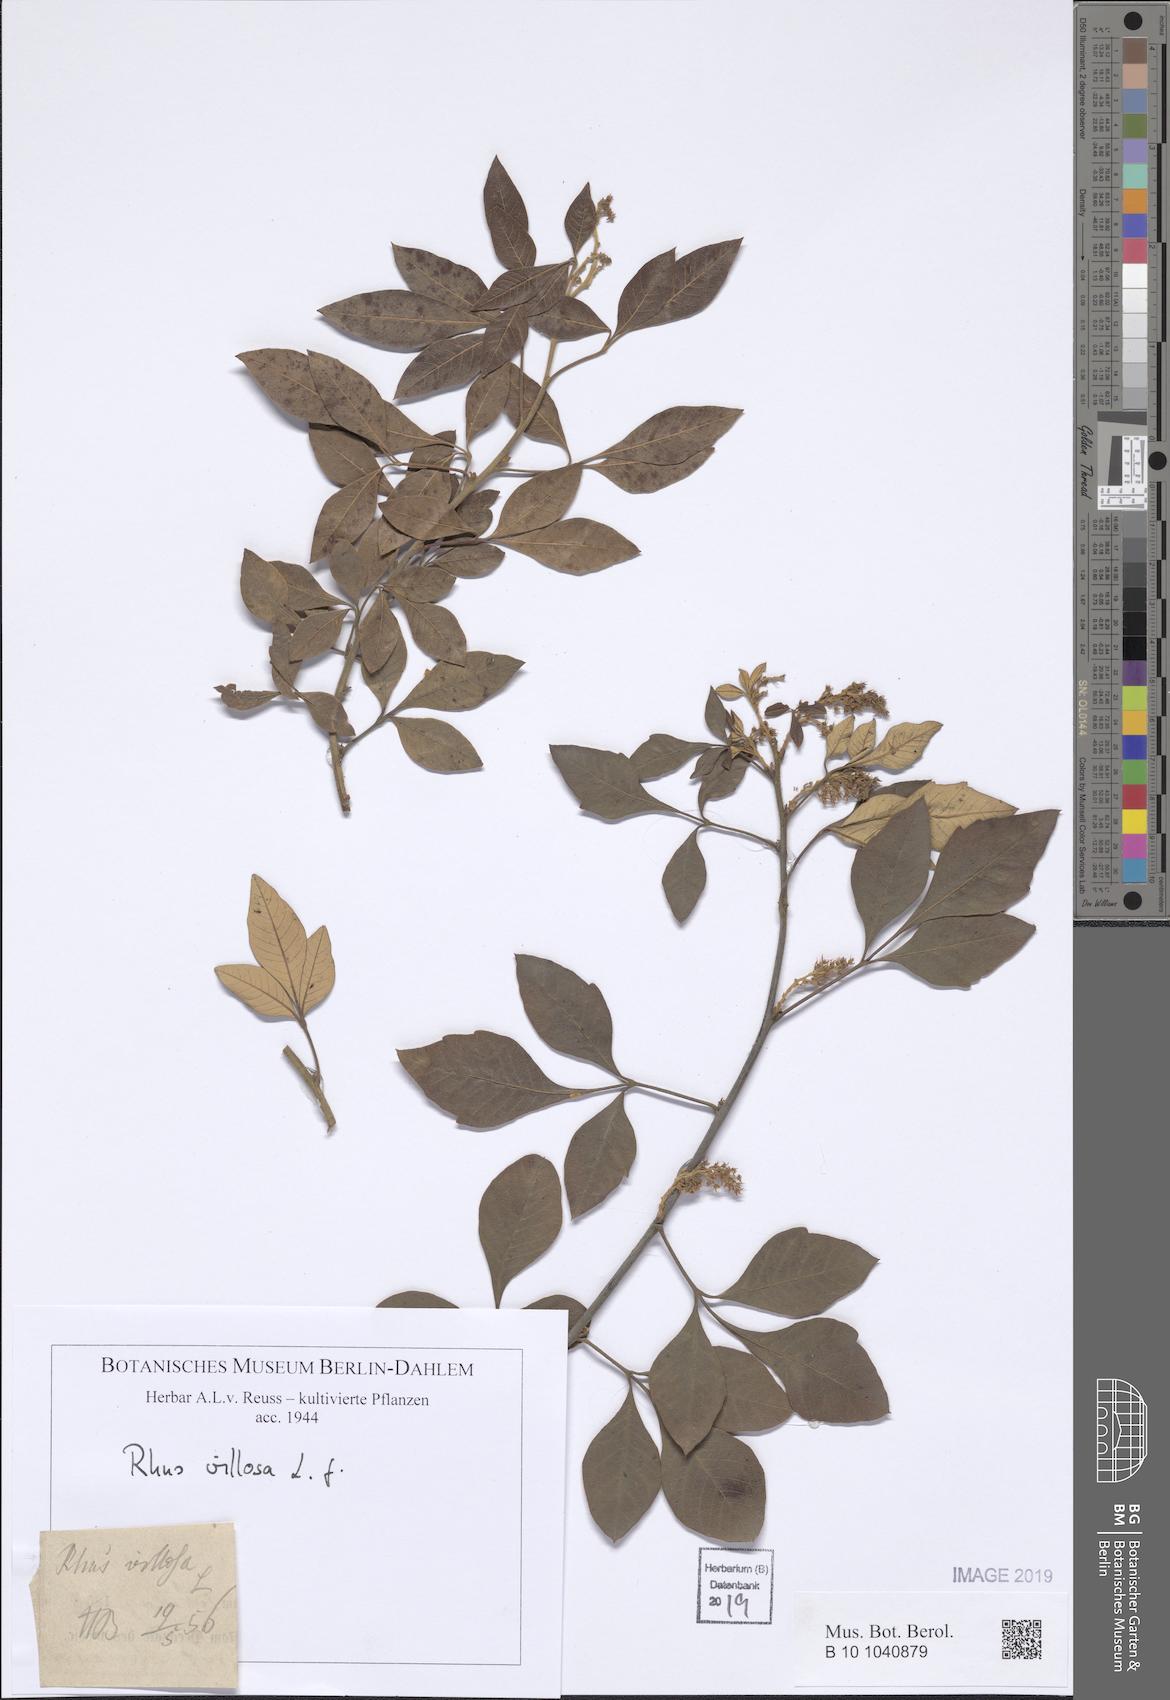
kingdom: Plantae
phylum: Tracheophyta
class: Magnoliopsida
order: Sapindales
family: Anacardiaceae
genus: Searsia
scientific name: Searsia laevigata
